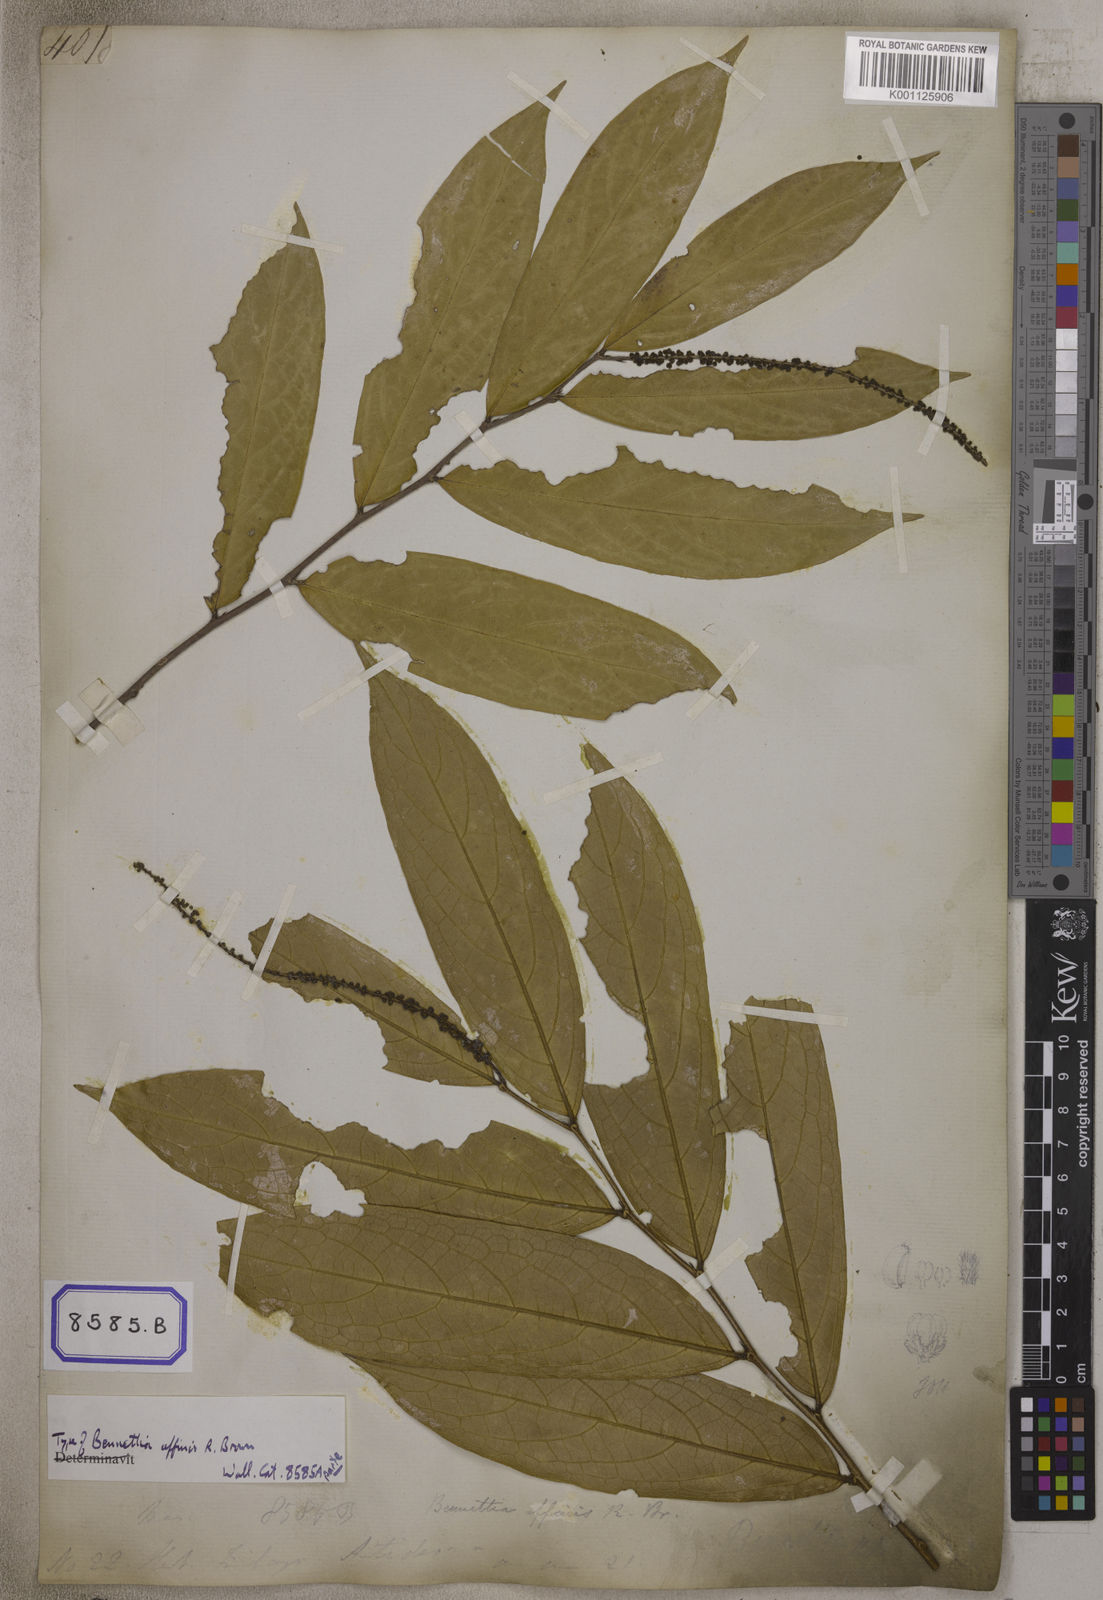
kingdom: Plantae
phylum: Tracheophyta
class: Magnoliopsida
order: Malpighiales
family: Pandaceae
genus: Galearia
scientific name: Galearia
